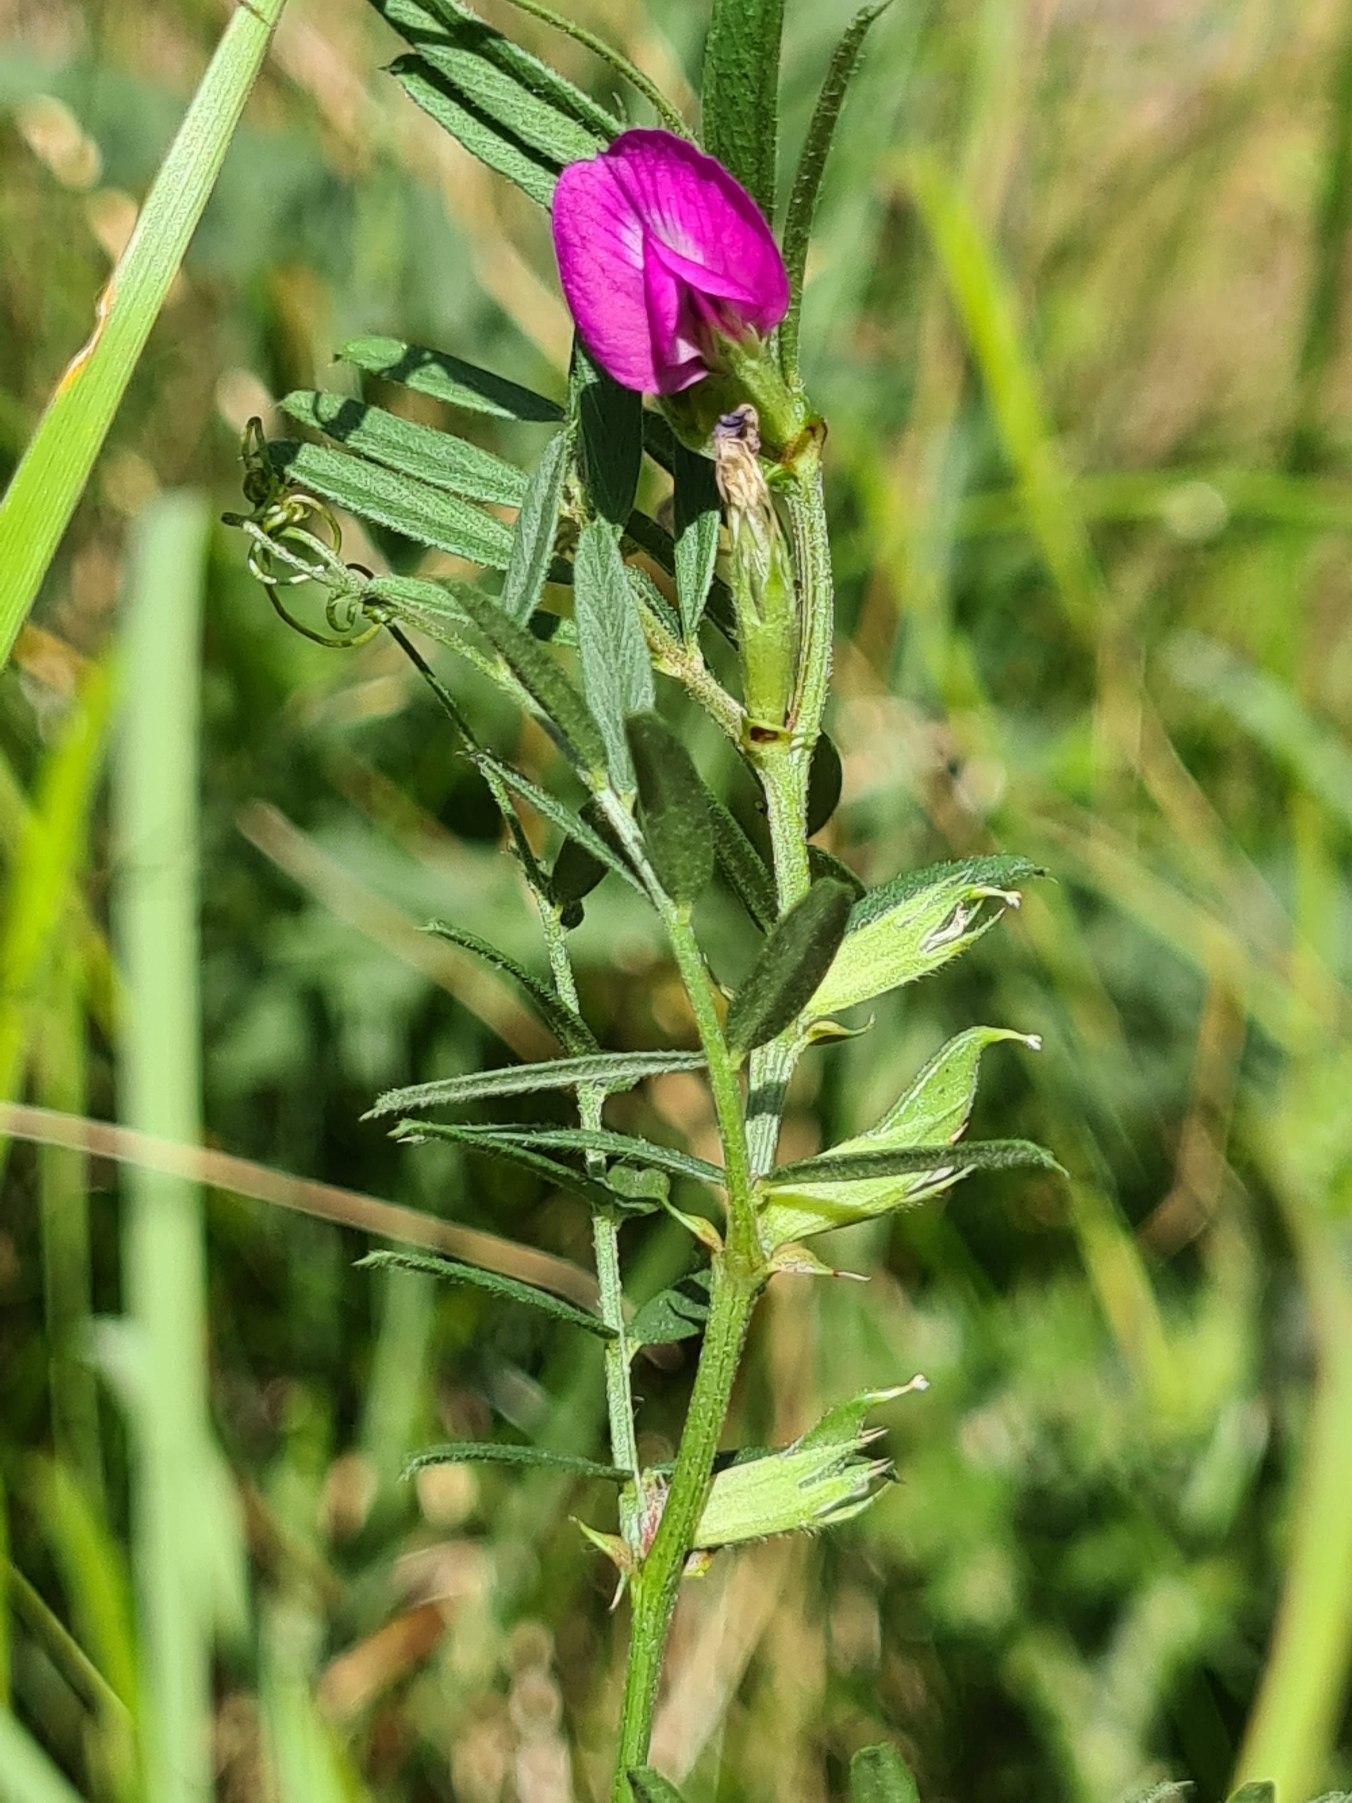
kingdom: Plantae
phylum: Tracheophyta
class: Magnoliopsida
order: Fabales
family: Fabaceae
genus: Vicia
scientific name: Vicia sativa
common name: Foder-vikke
